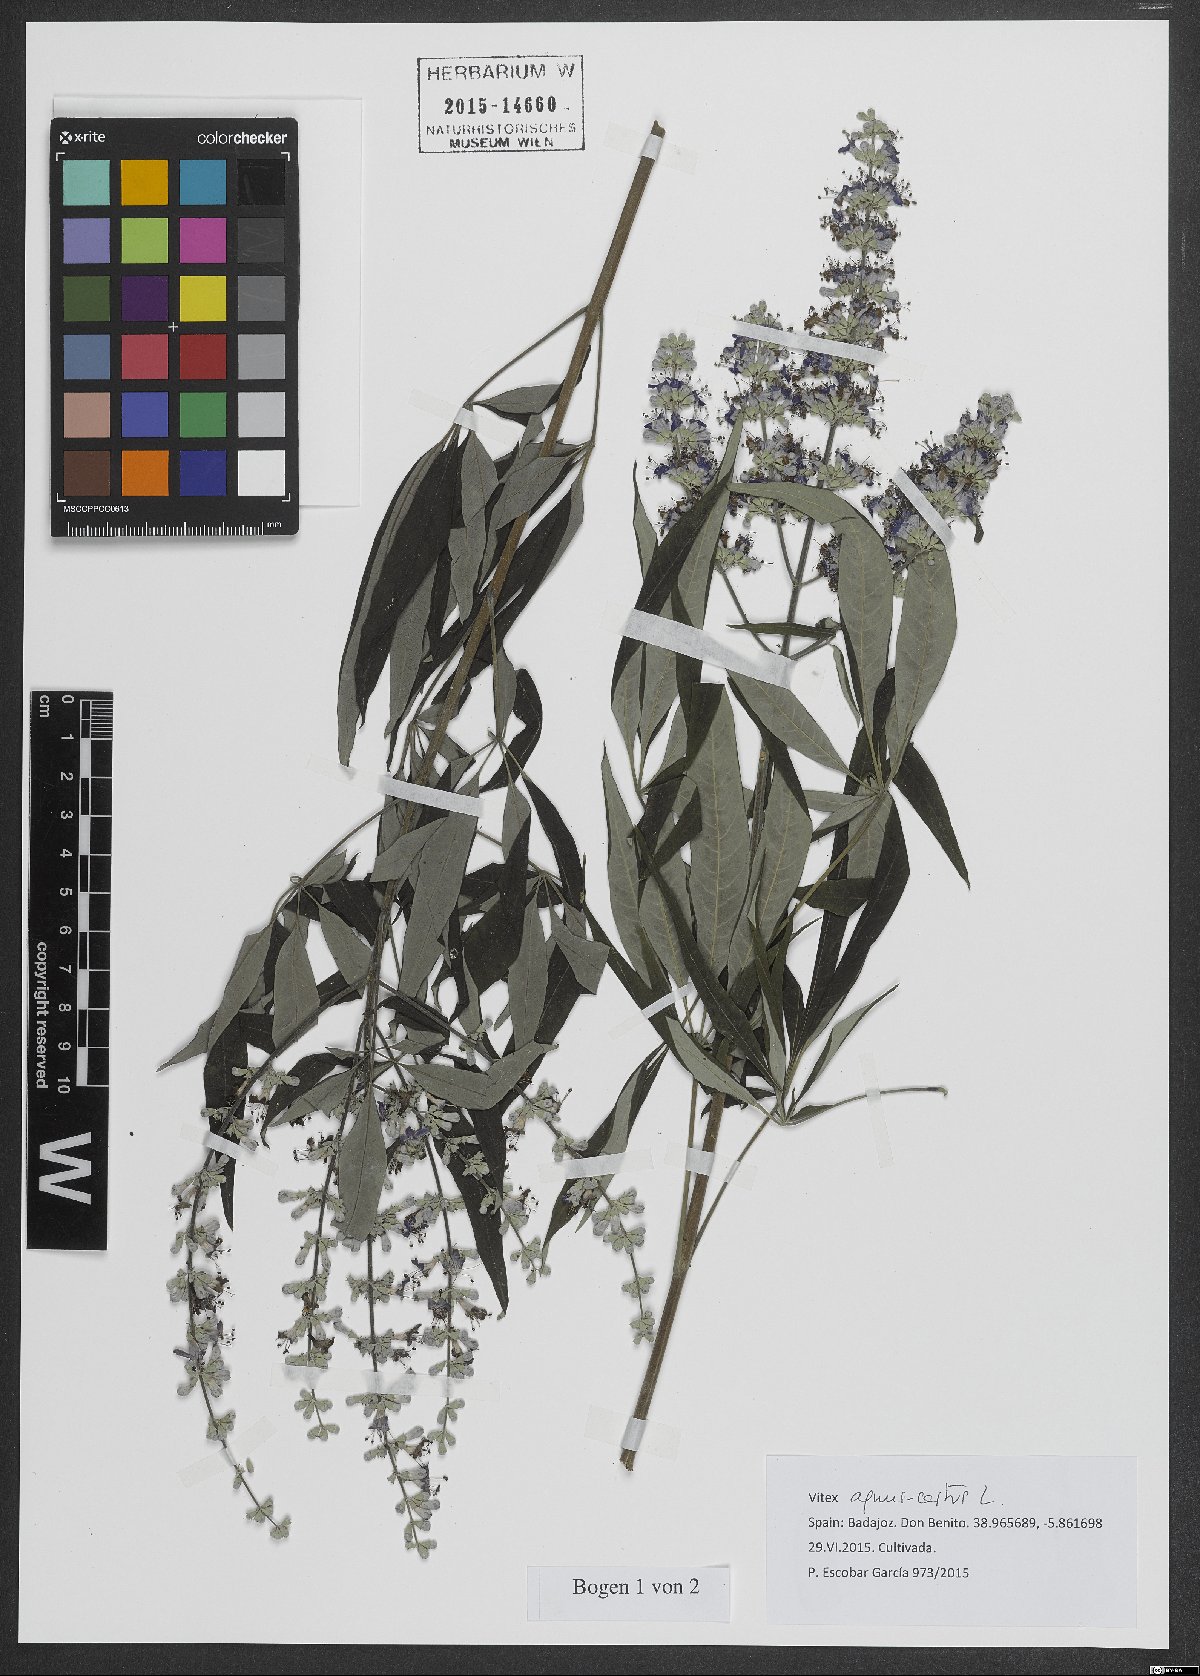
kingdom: Plantae
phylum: Tracheophyta
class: Magnoliopsida
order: Lamiales
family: Lamiaceae
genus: Vitex
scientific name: Vitex agnus-castus
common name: Chasteberry
